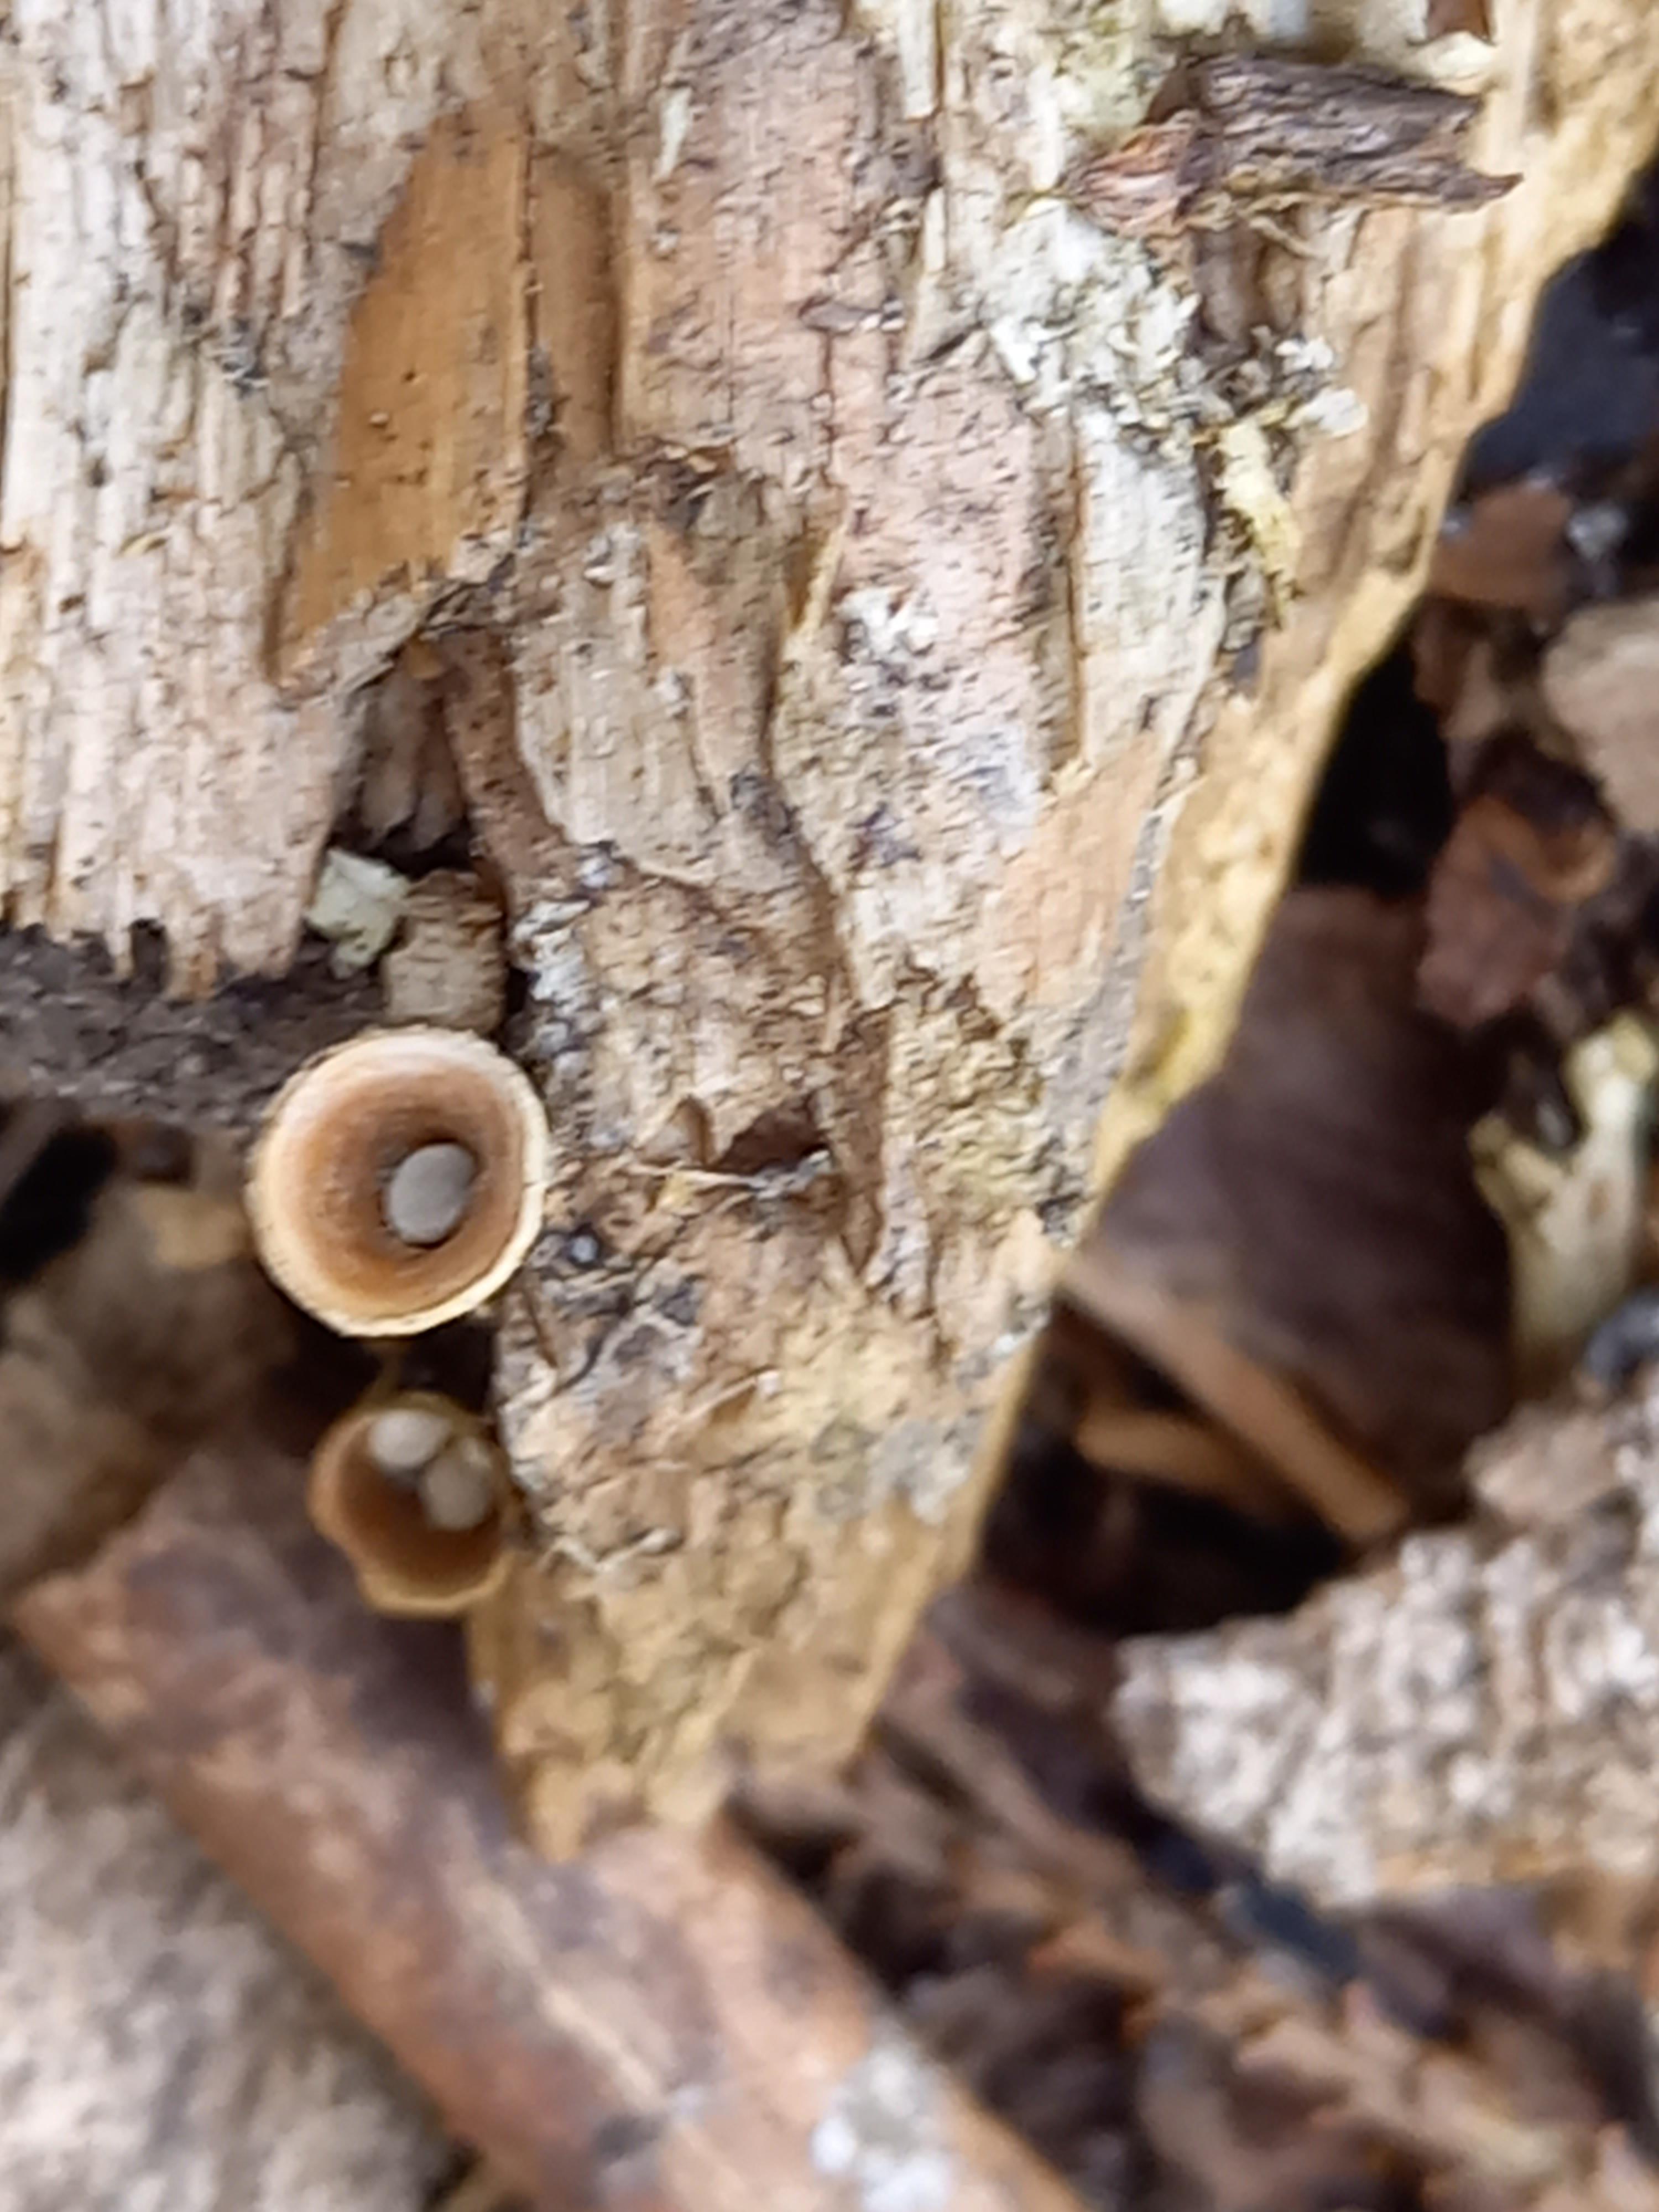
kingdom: Fungi
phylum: Basidiomycota
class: Agaricomycetes
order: Agaricales
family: Nidulariaceae
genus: Crucibulum
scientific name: Crucibulum crucibuliforme
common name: krukkesvamp
